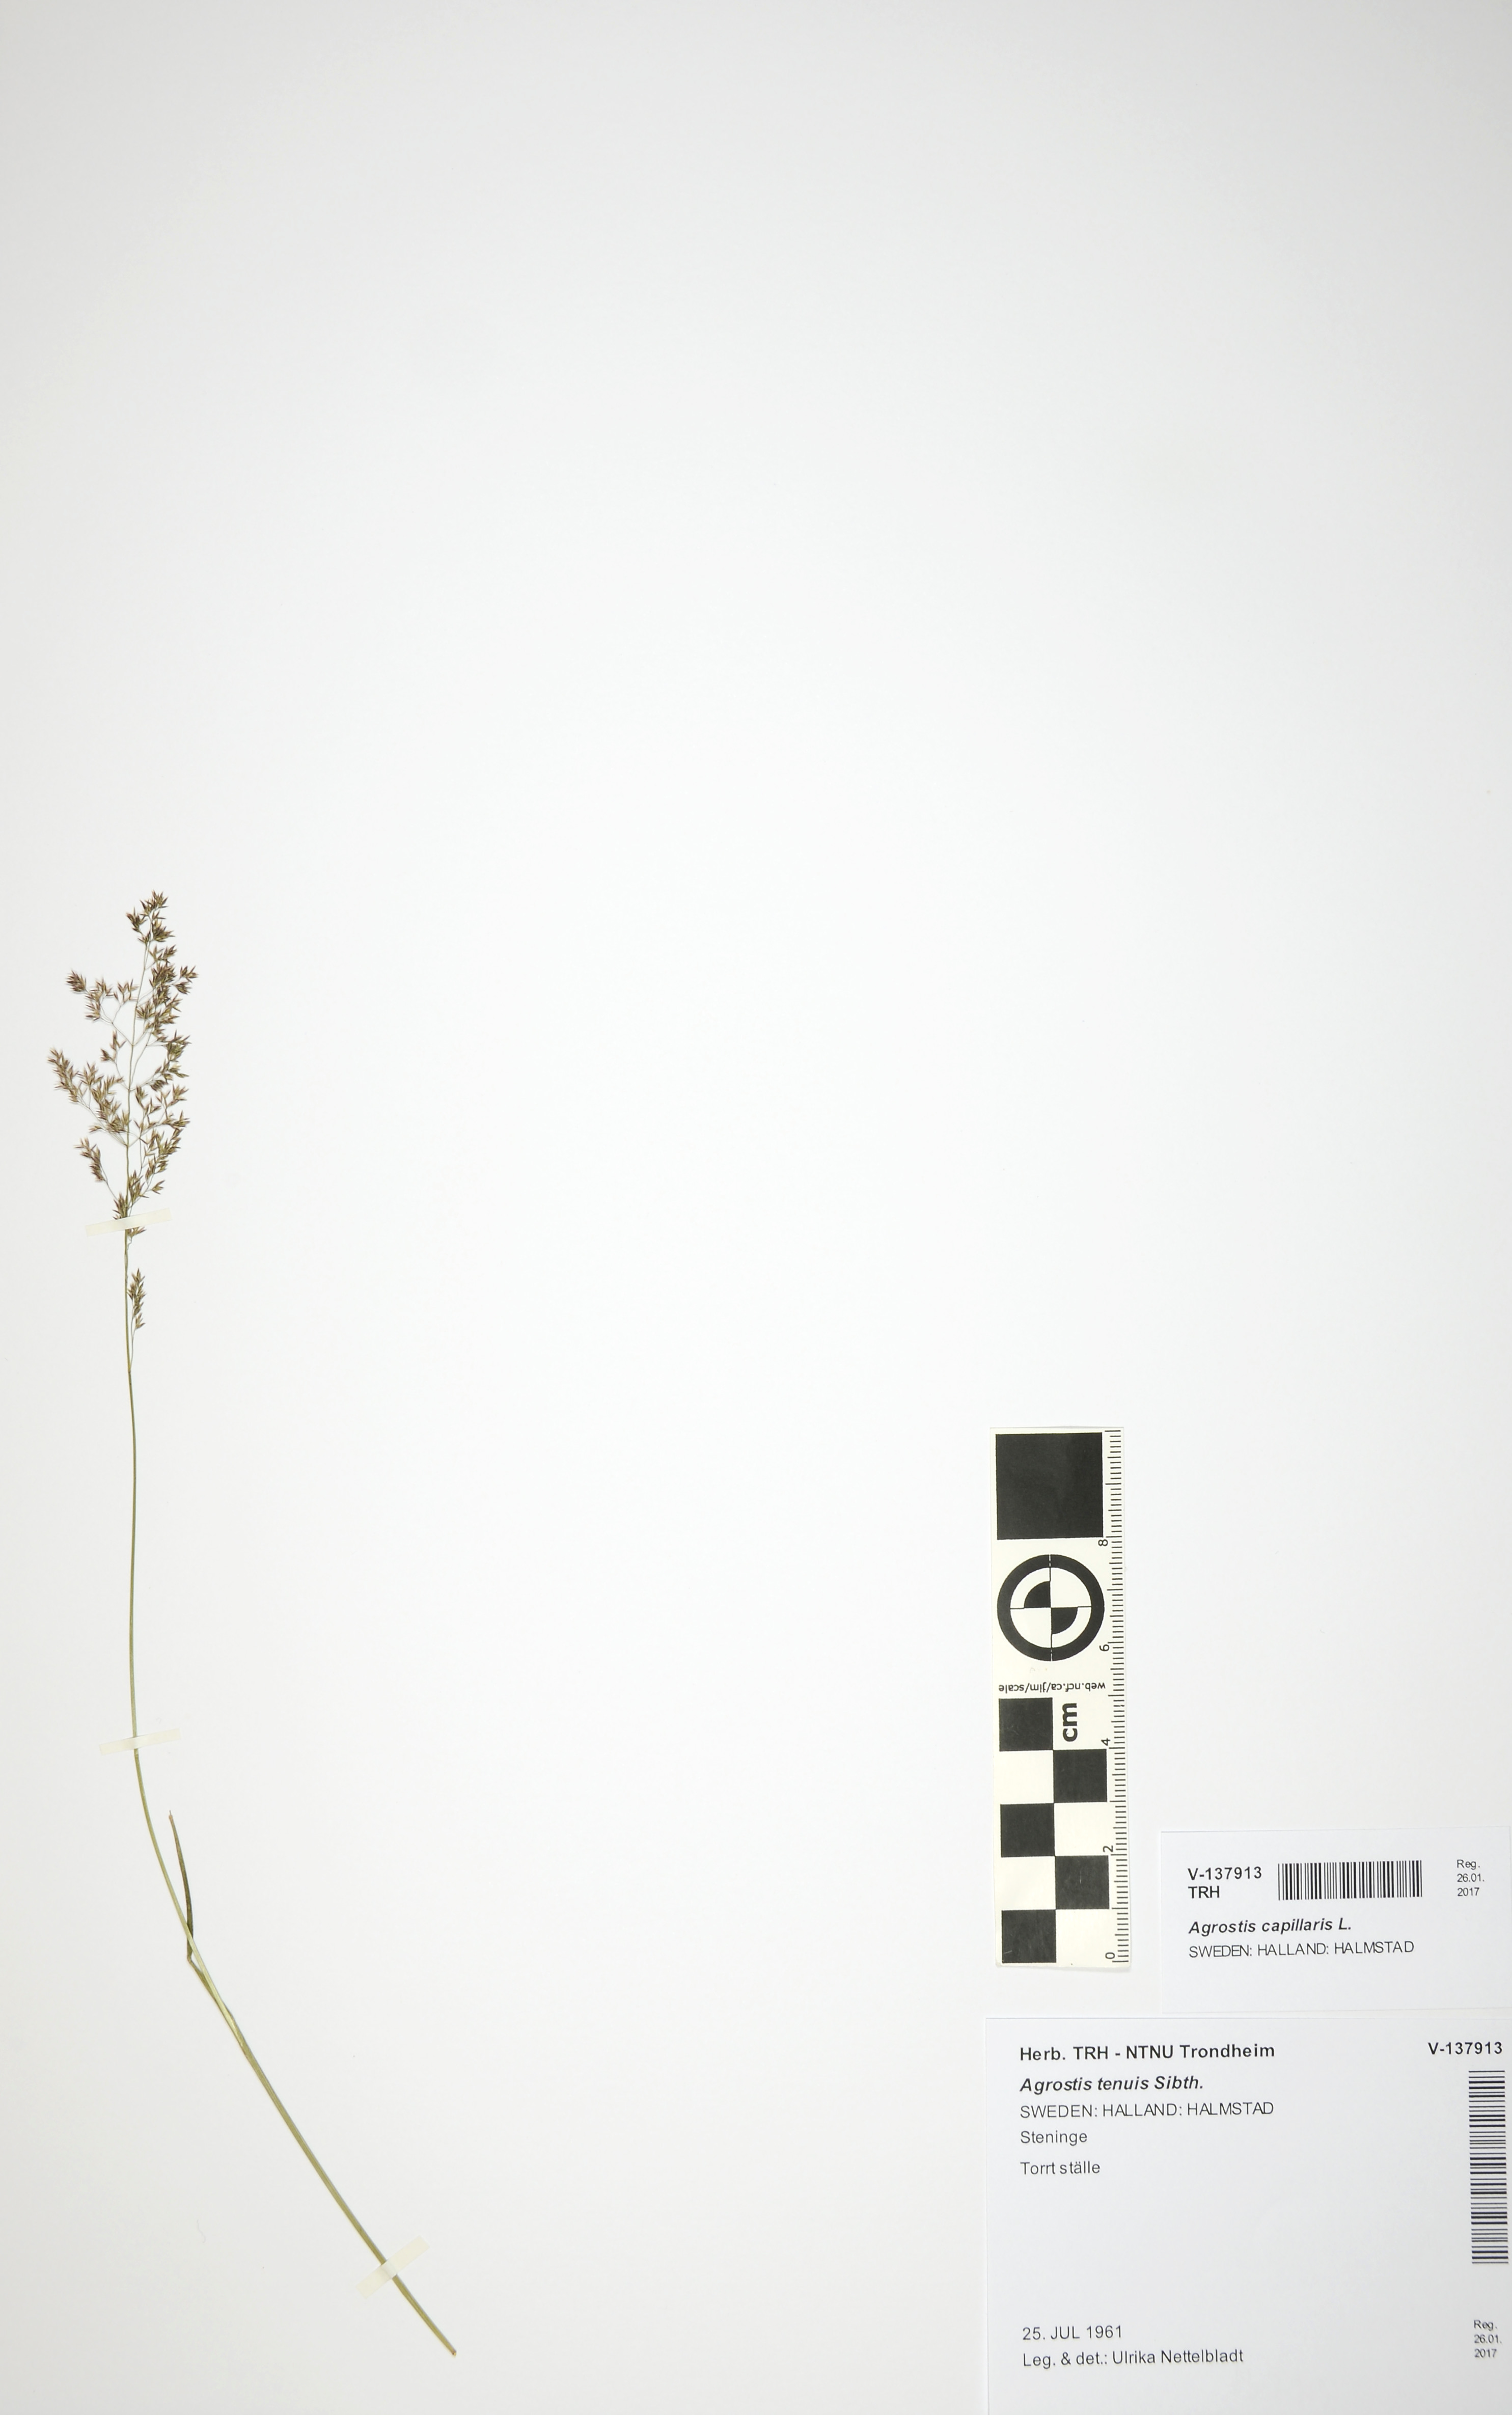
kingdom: Plantae
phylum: Tracheophyta
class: Liliopsida
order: Poales
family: Poaceae
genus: Agrostis
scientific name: Agrostis capillaris
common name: Colonial bentgrass
